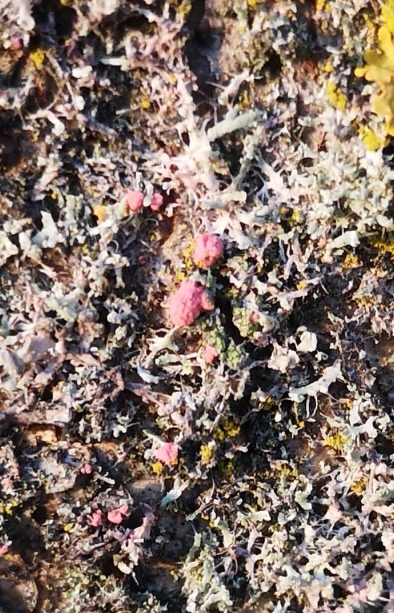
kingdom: Fungi
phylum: Ascomycota
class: Sordariomycetes
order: Hypocreales
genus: Illosporiopsis
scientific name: Illosporiopsis christiansenii
